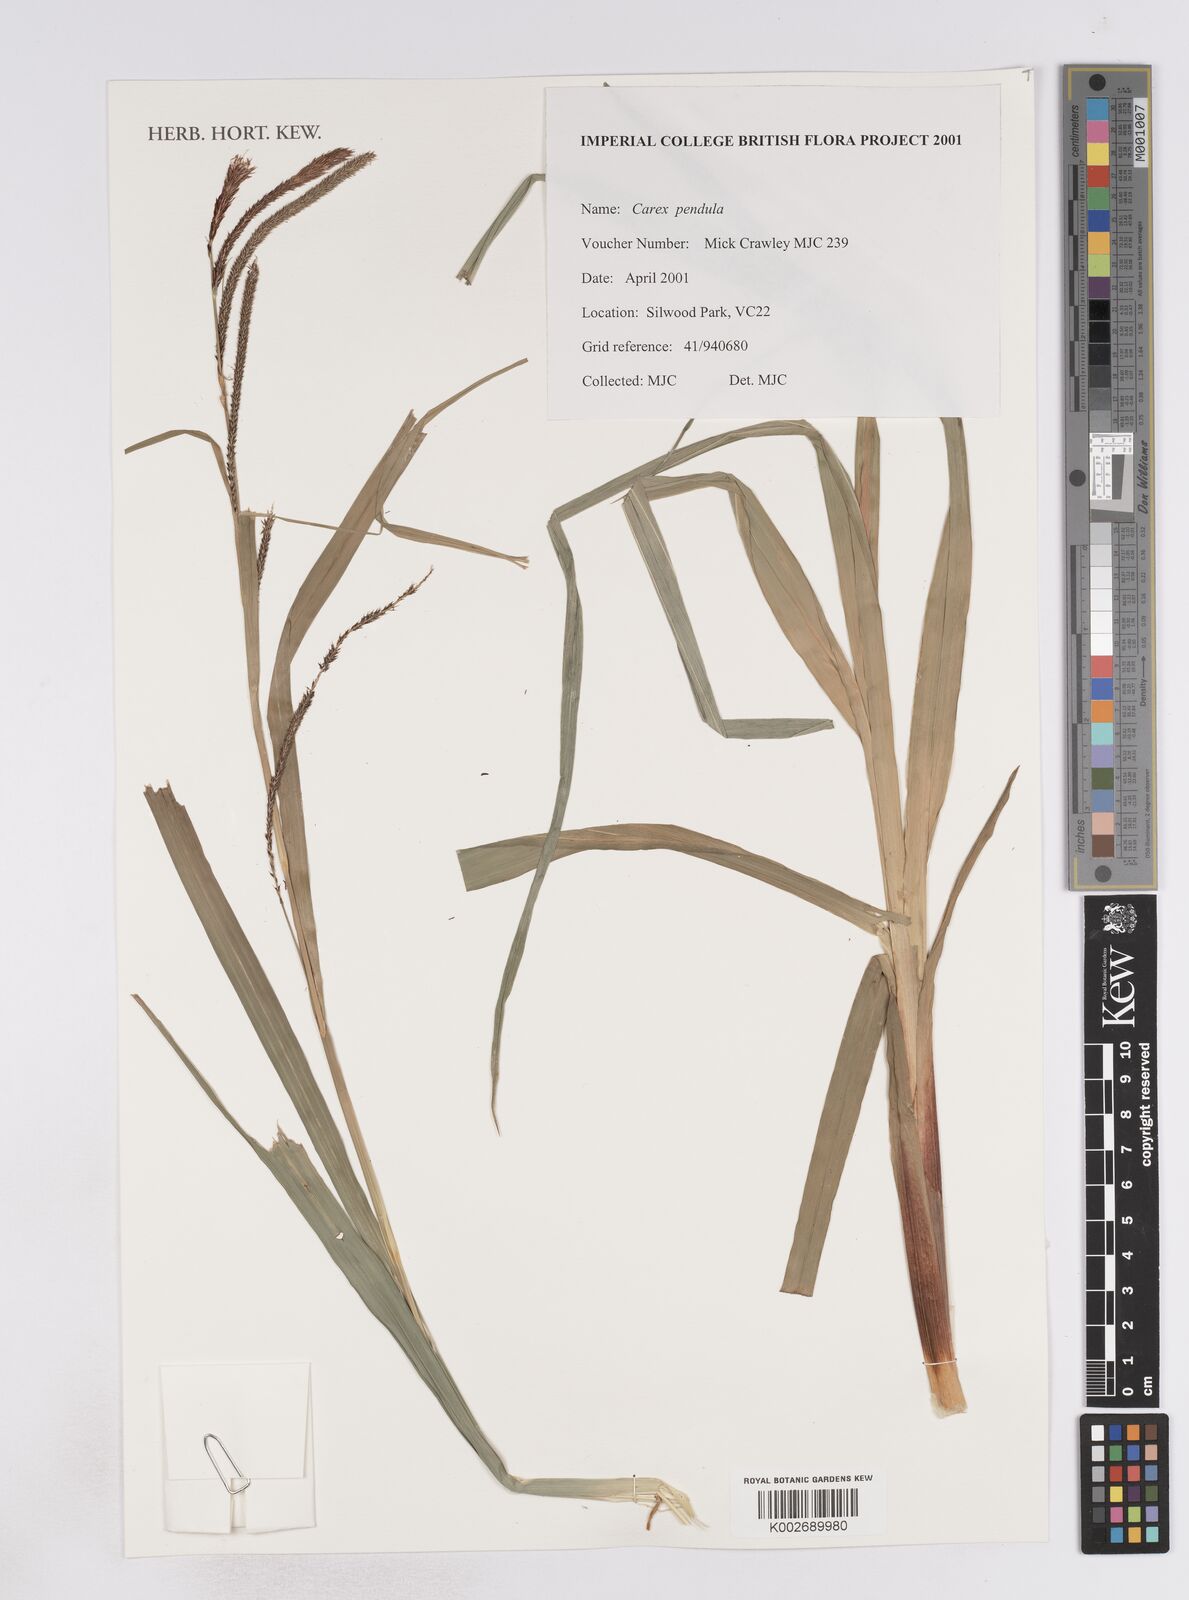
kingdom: Plantae
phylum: Tracheophyta
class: Liliopsida
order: Poales
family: Cyperaceae
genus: Carex
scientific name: Carex pendula
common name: Pendulous sedge
